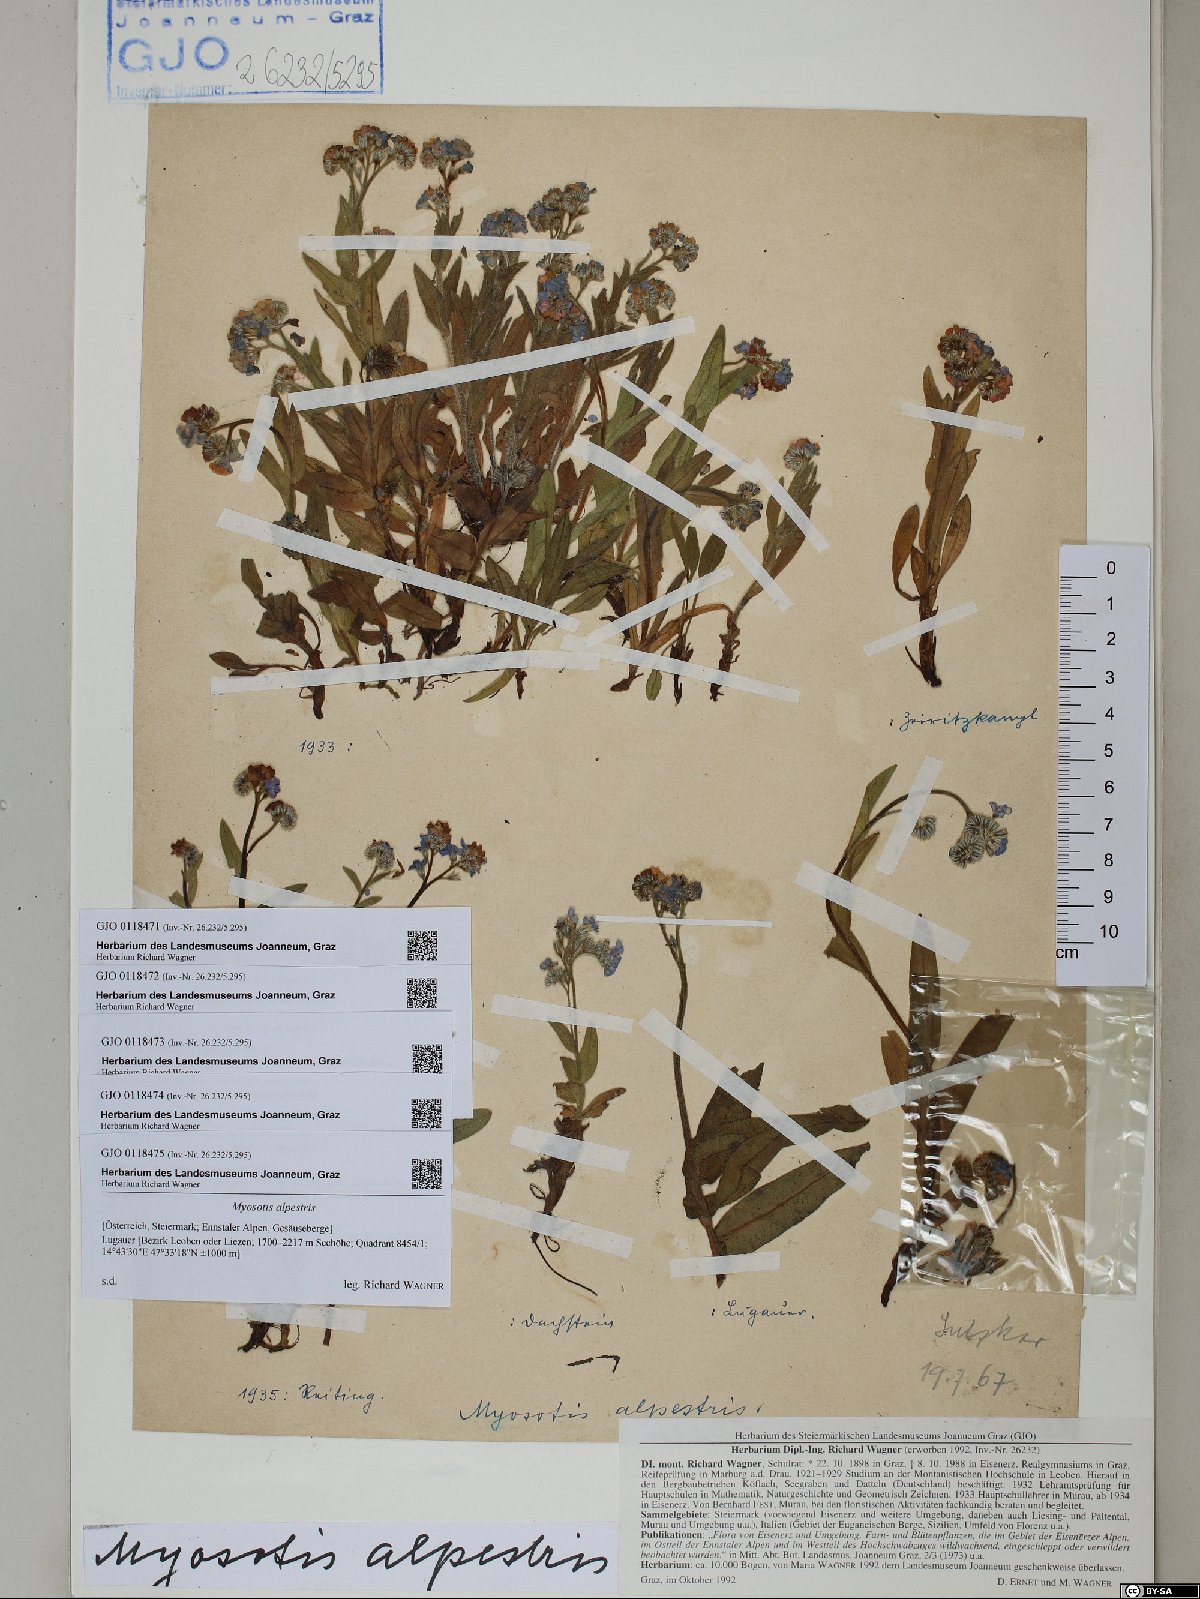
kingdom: Plantae
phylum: Tracheophyta
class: Magnoliopsida
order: Boraginales
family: Boraginaceae
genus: Myosotis
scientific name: Myosotis alpestris
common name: Alpine forget-me-not
